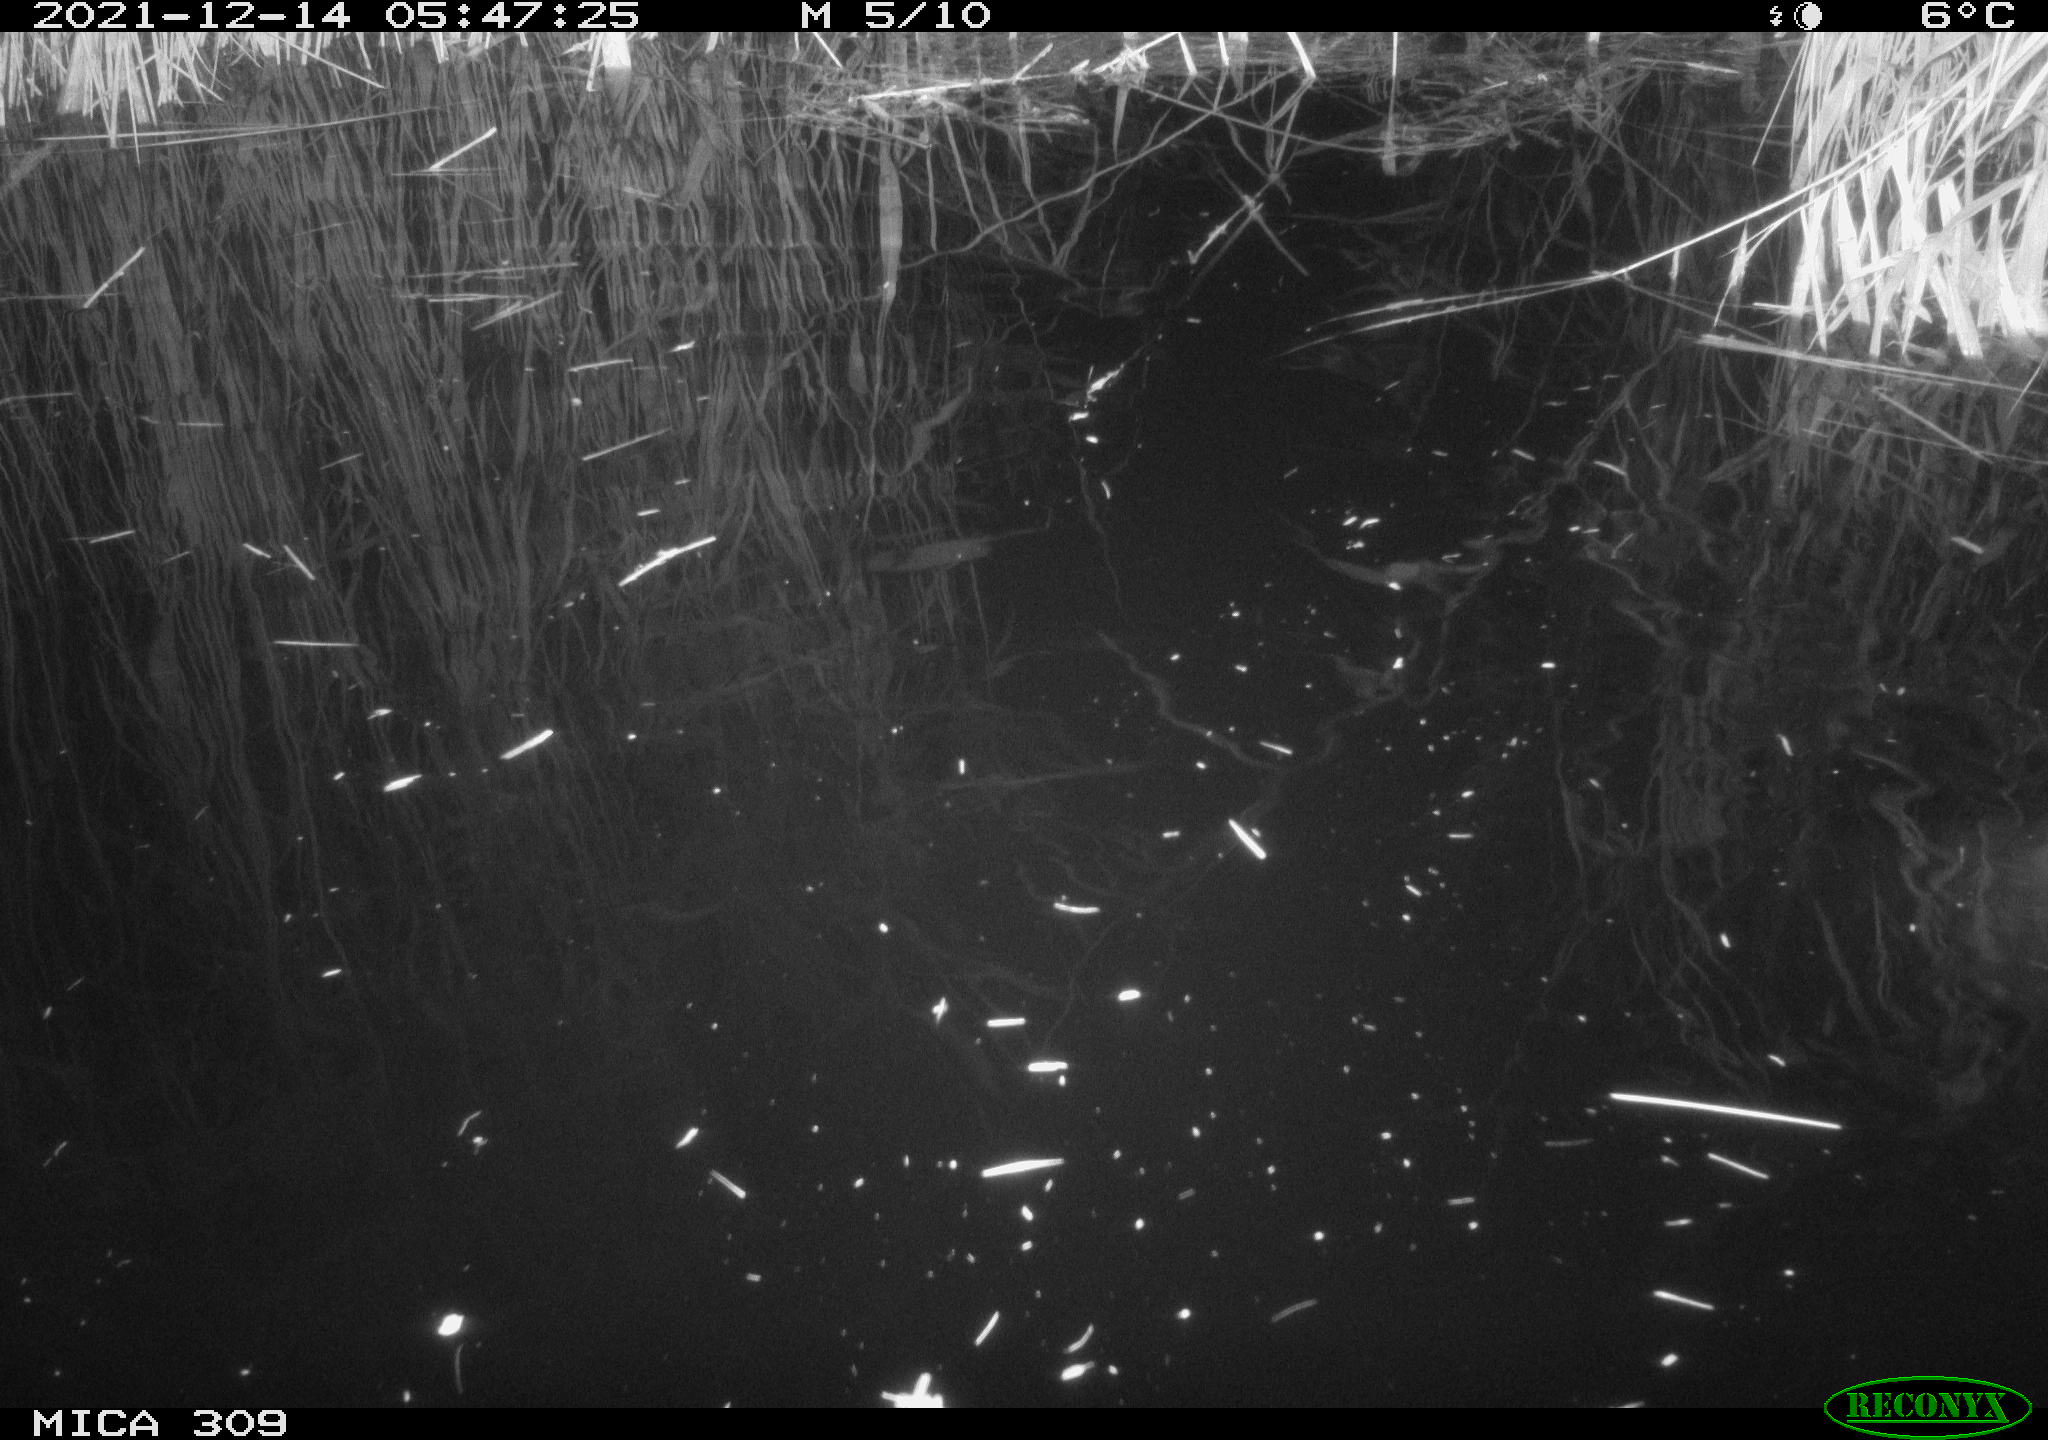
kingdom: Animalia
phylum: Chordata
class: Mammalia
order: Rodentia
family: Muridae
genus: Rattus
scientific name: Rattus norvegicus
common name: Brown rat
